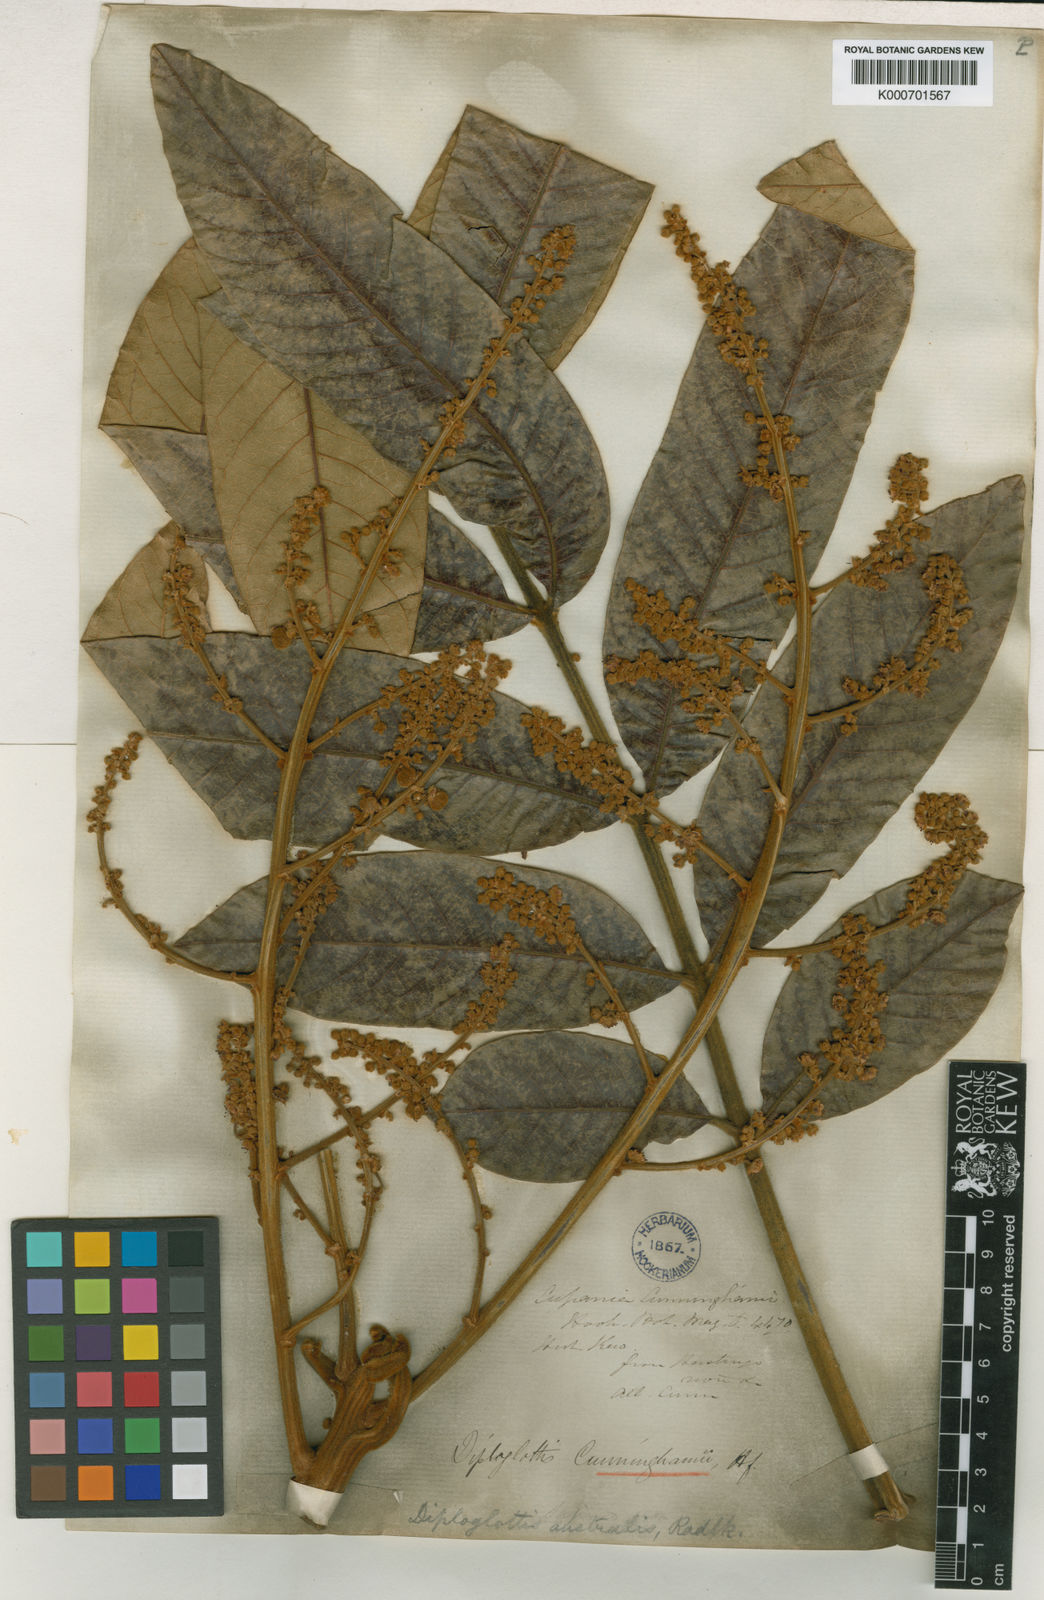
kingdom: Plantae
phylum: Tracheophyta
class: Magnoliopsida
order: Sapindales
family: Sapindaceae
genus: Diploglottis
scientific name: Diploglottis australis
